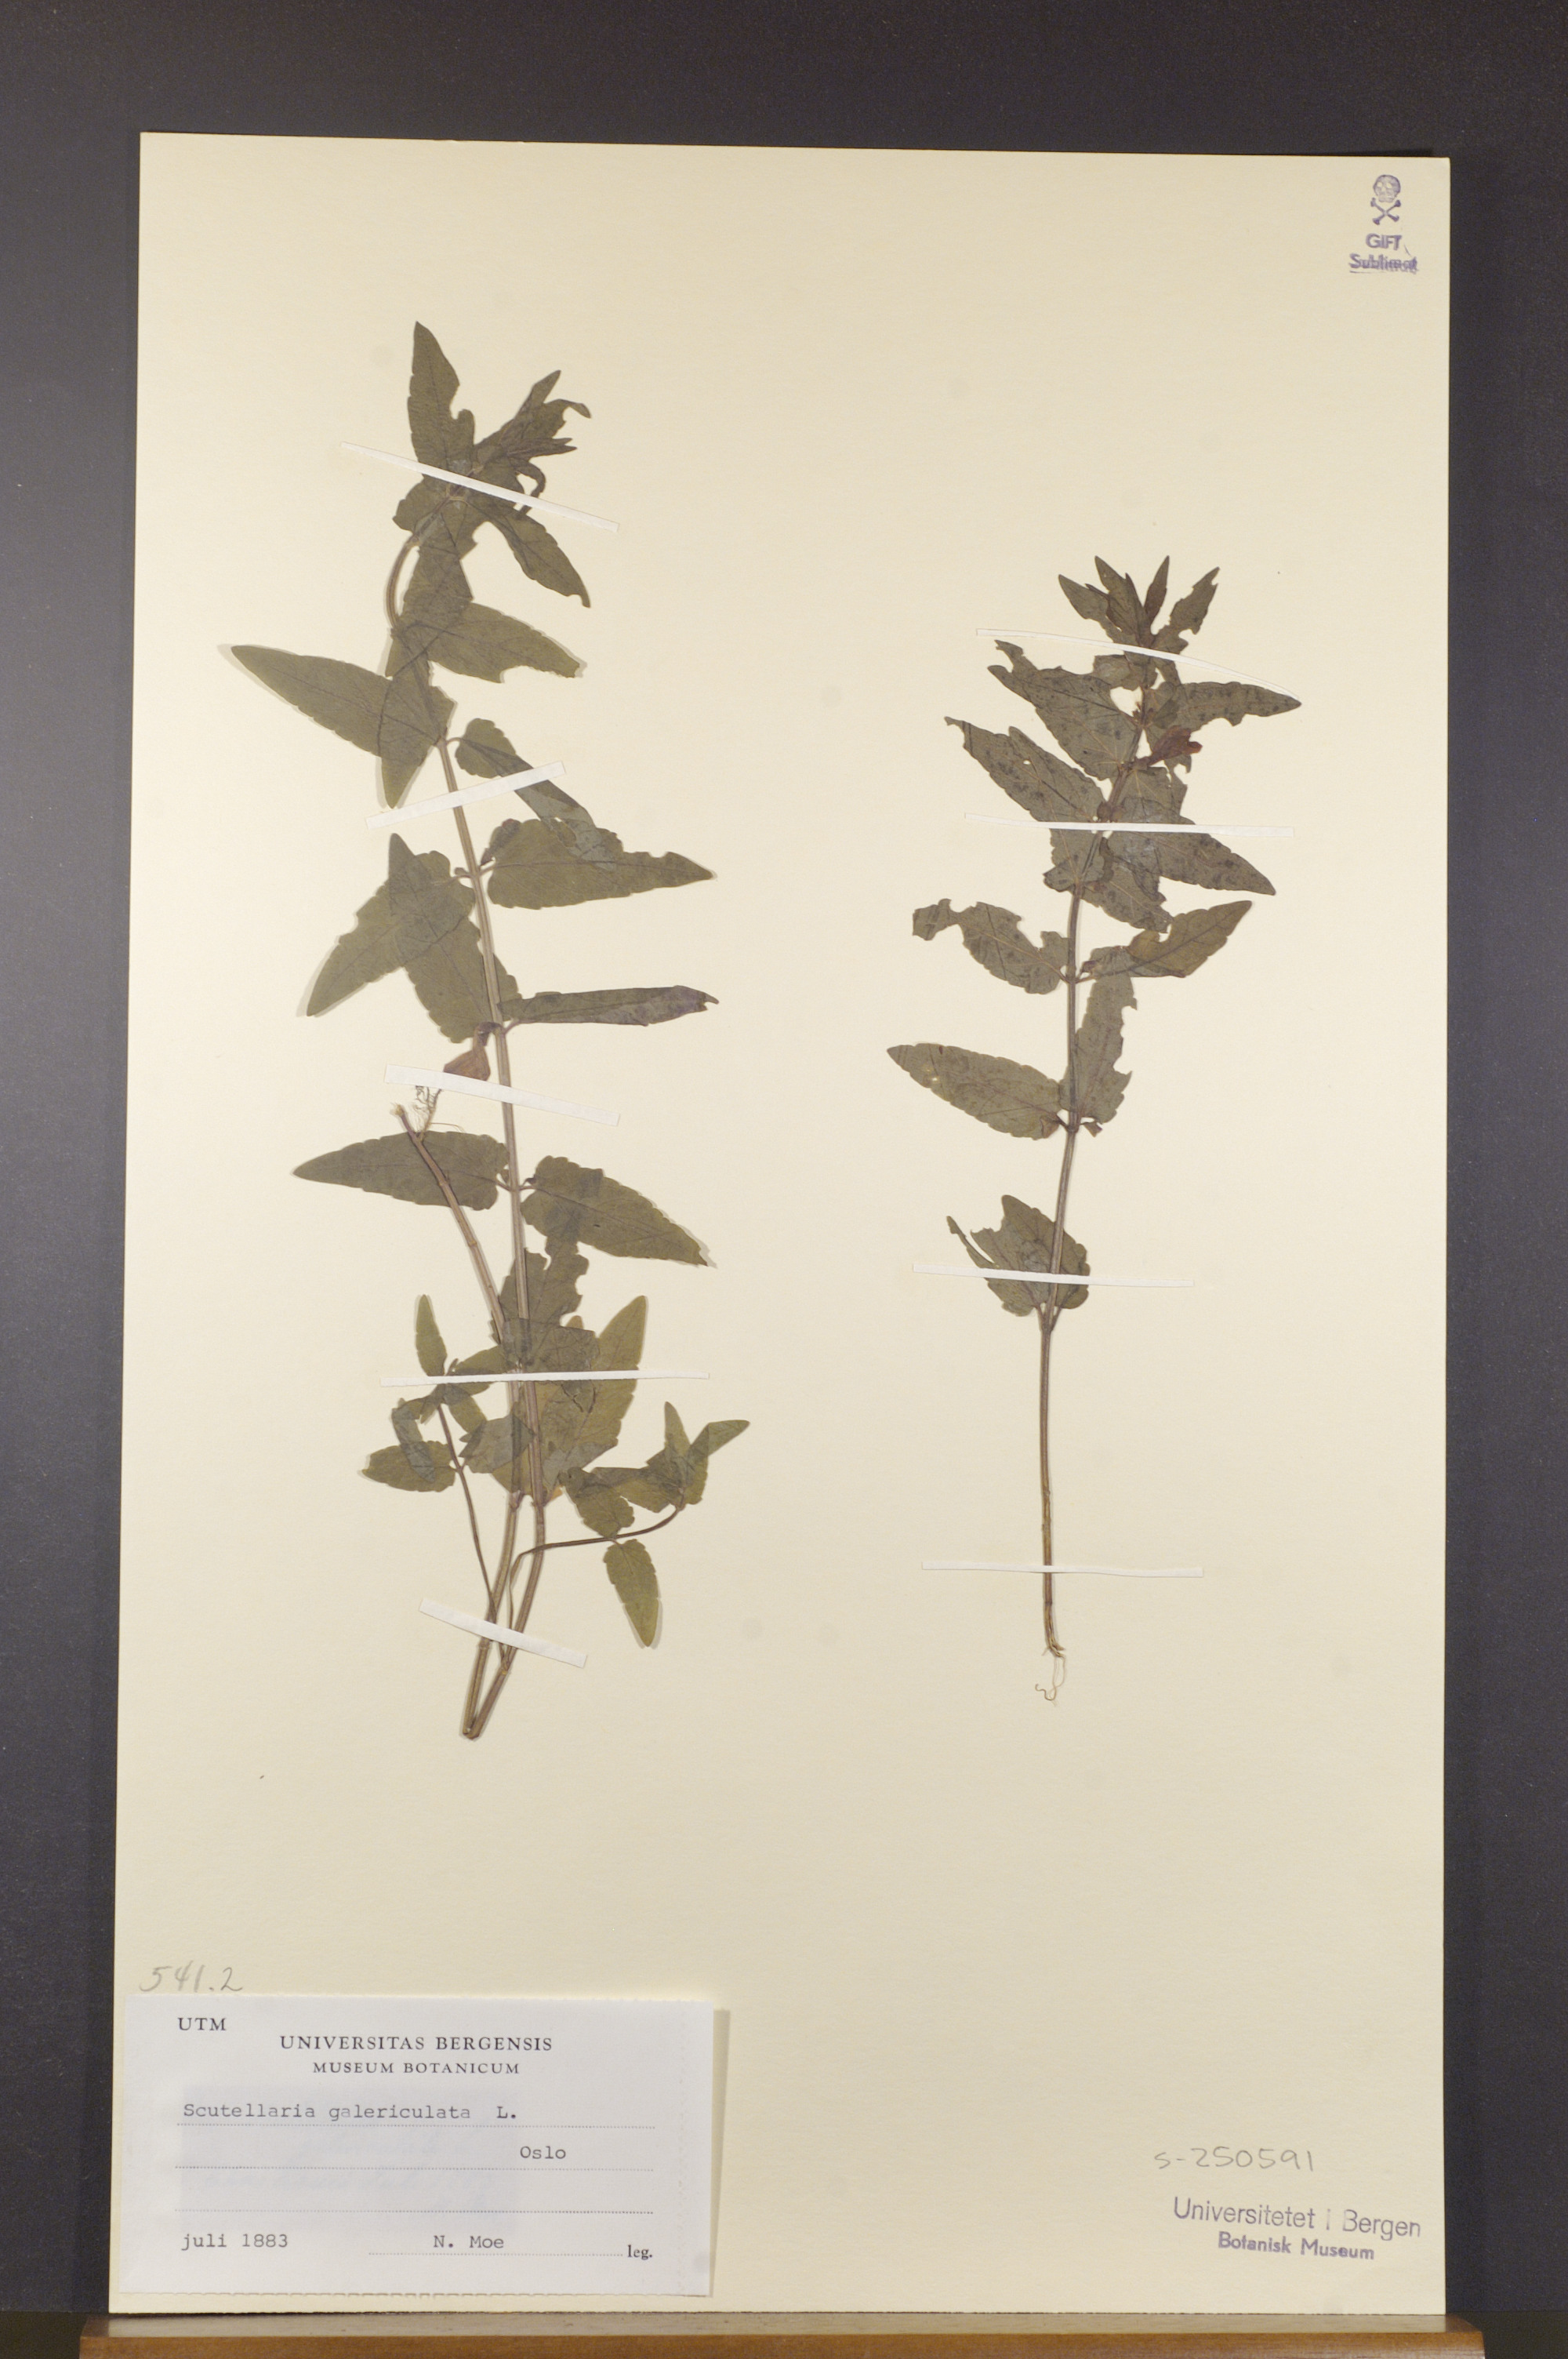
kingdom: Plantae
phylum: Tracheophyta
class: Magnoliopsida
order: Lamiales
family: Lamiaceae
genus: Scutellaria
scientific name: Scutellaria galericulata
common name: Skullcap
